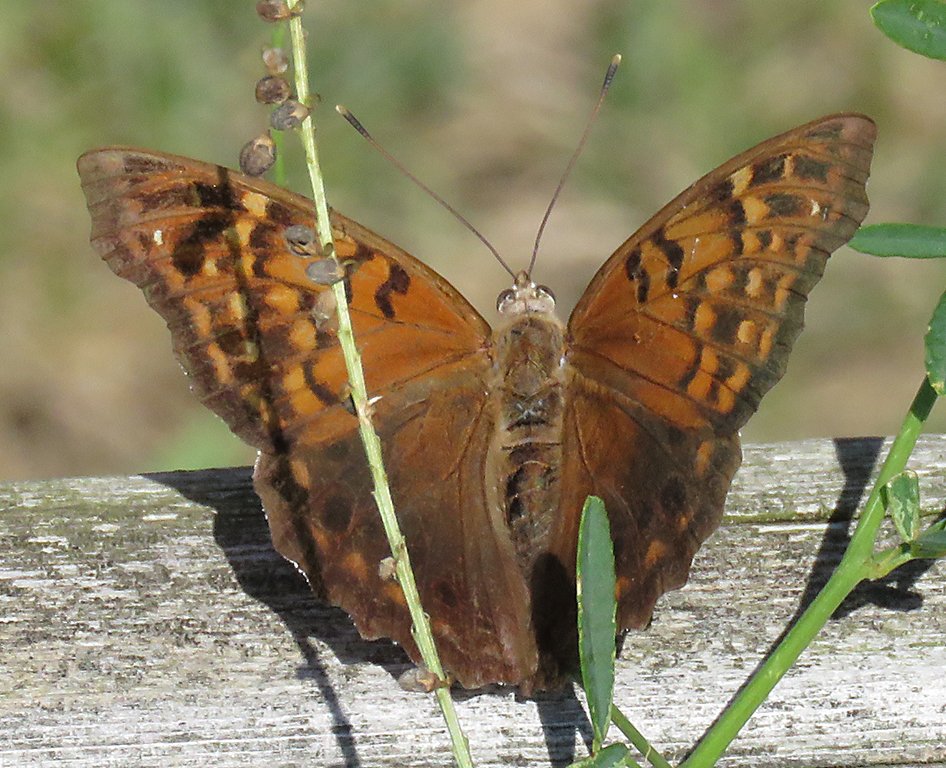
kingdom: Animalia
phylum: Arthropoda
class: Insecta
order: Lepidoptera
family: Nymphalidae
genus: Asterocampa
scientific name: Asterocampa clyton
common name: Tawny Emperor
